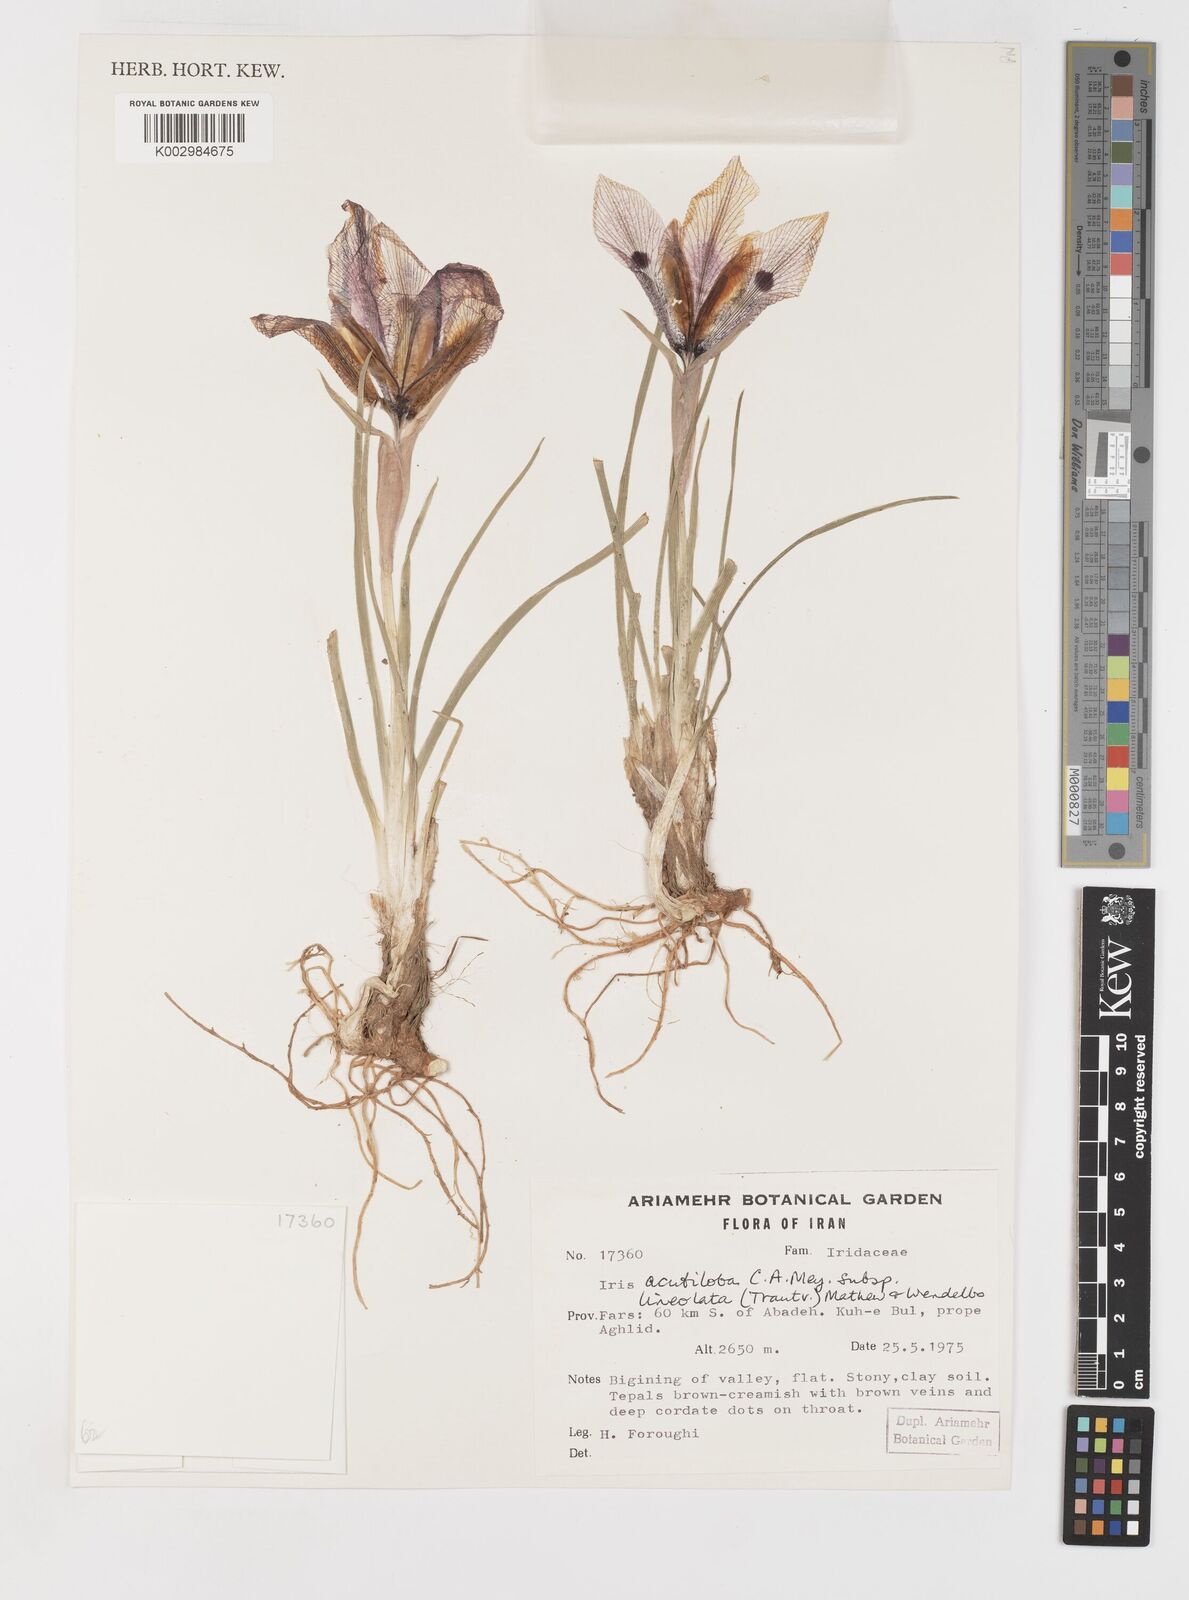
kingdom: Plantae
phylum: Tracheophyta
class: Liliopsida
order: Asparagales
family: Iridaceae
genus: Iris
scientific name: Iris acutiloba
